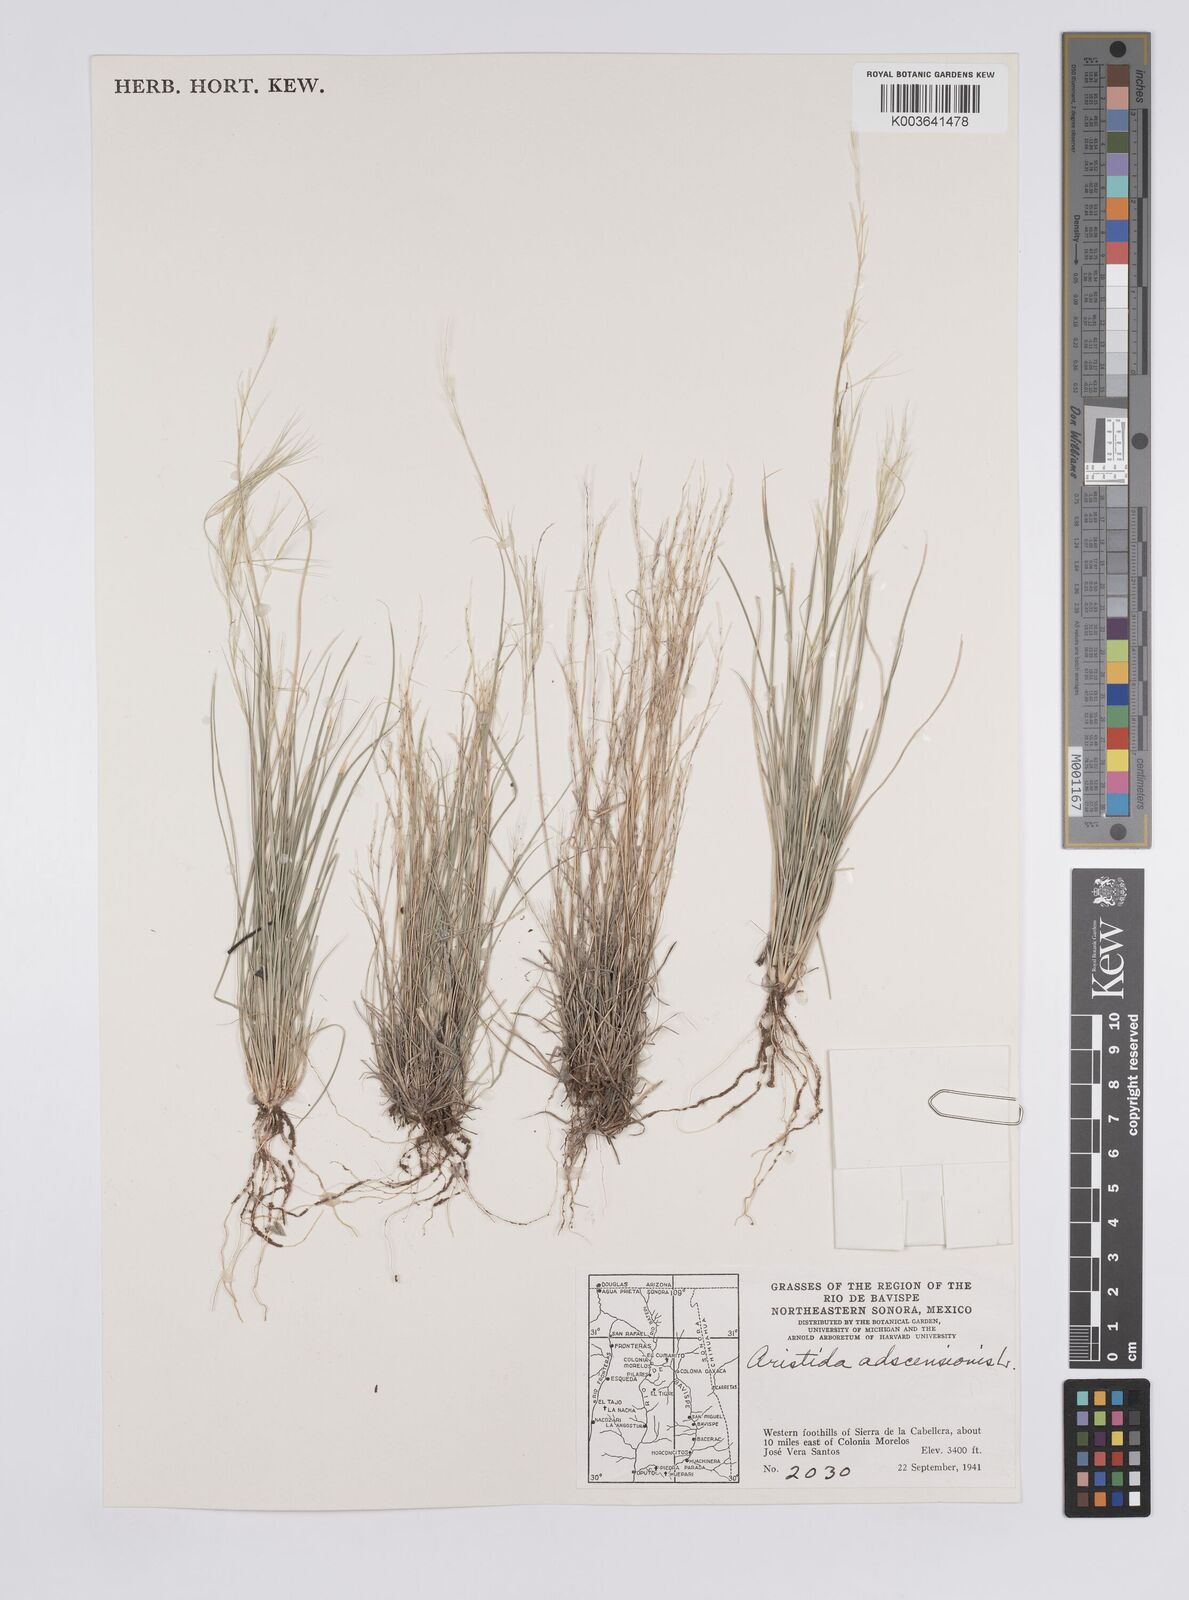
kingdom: Plantae
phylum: Tracheophyta
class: Liliopsida
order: Poales
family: Poaceae
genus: Aristida
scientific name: Aristida adscensionis
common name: Sixweeks threeawn
